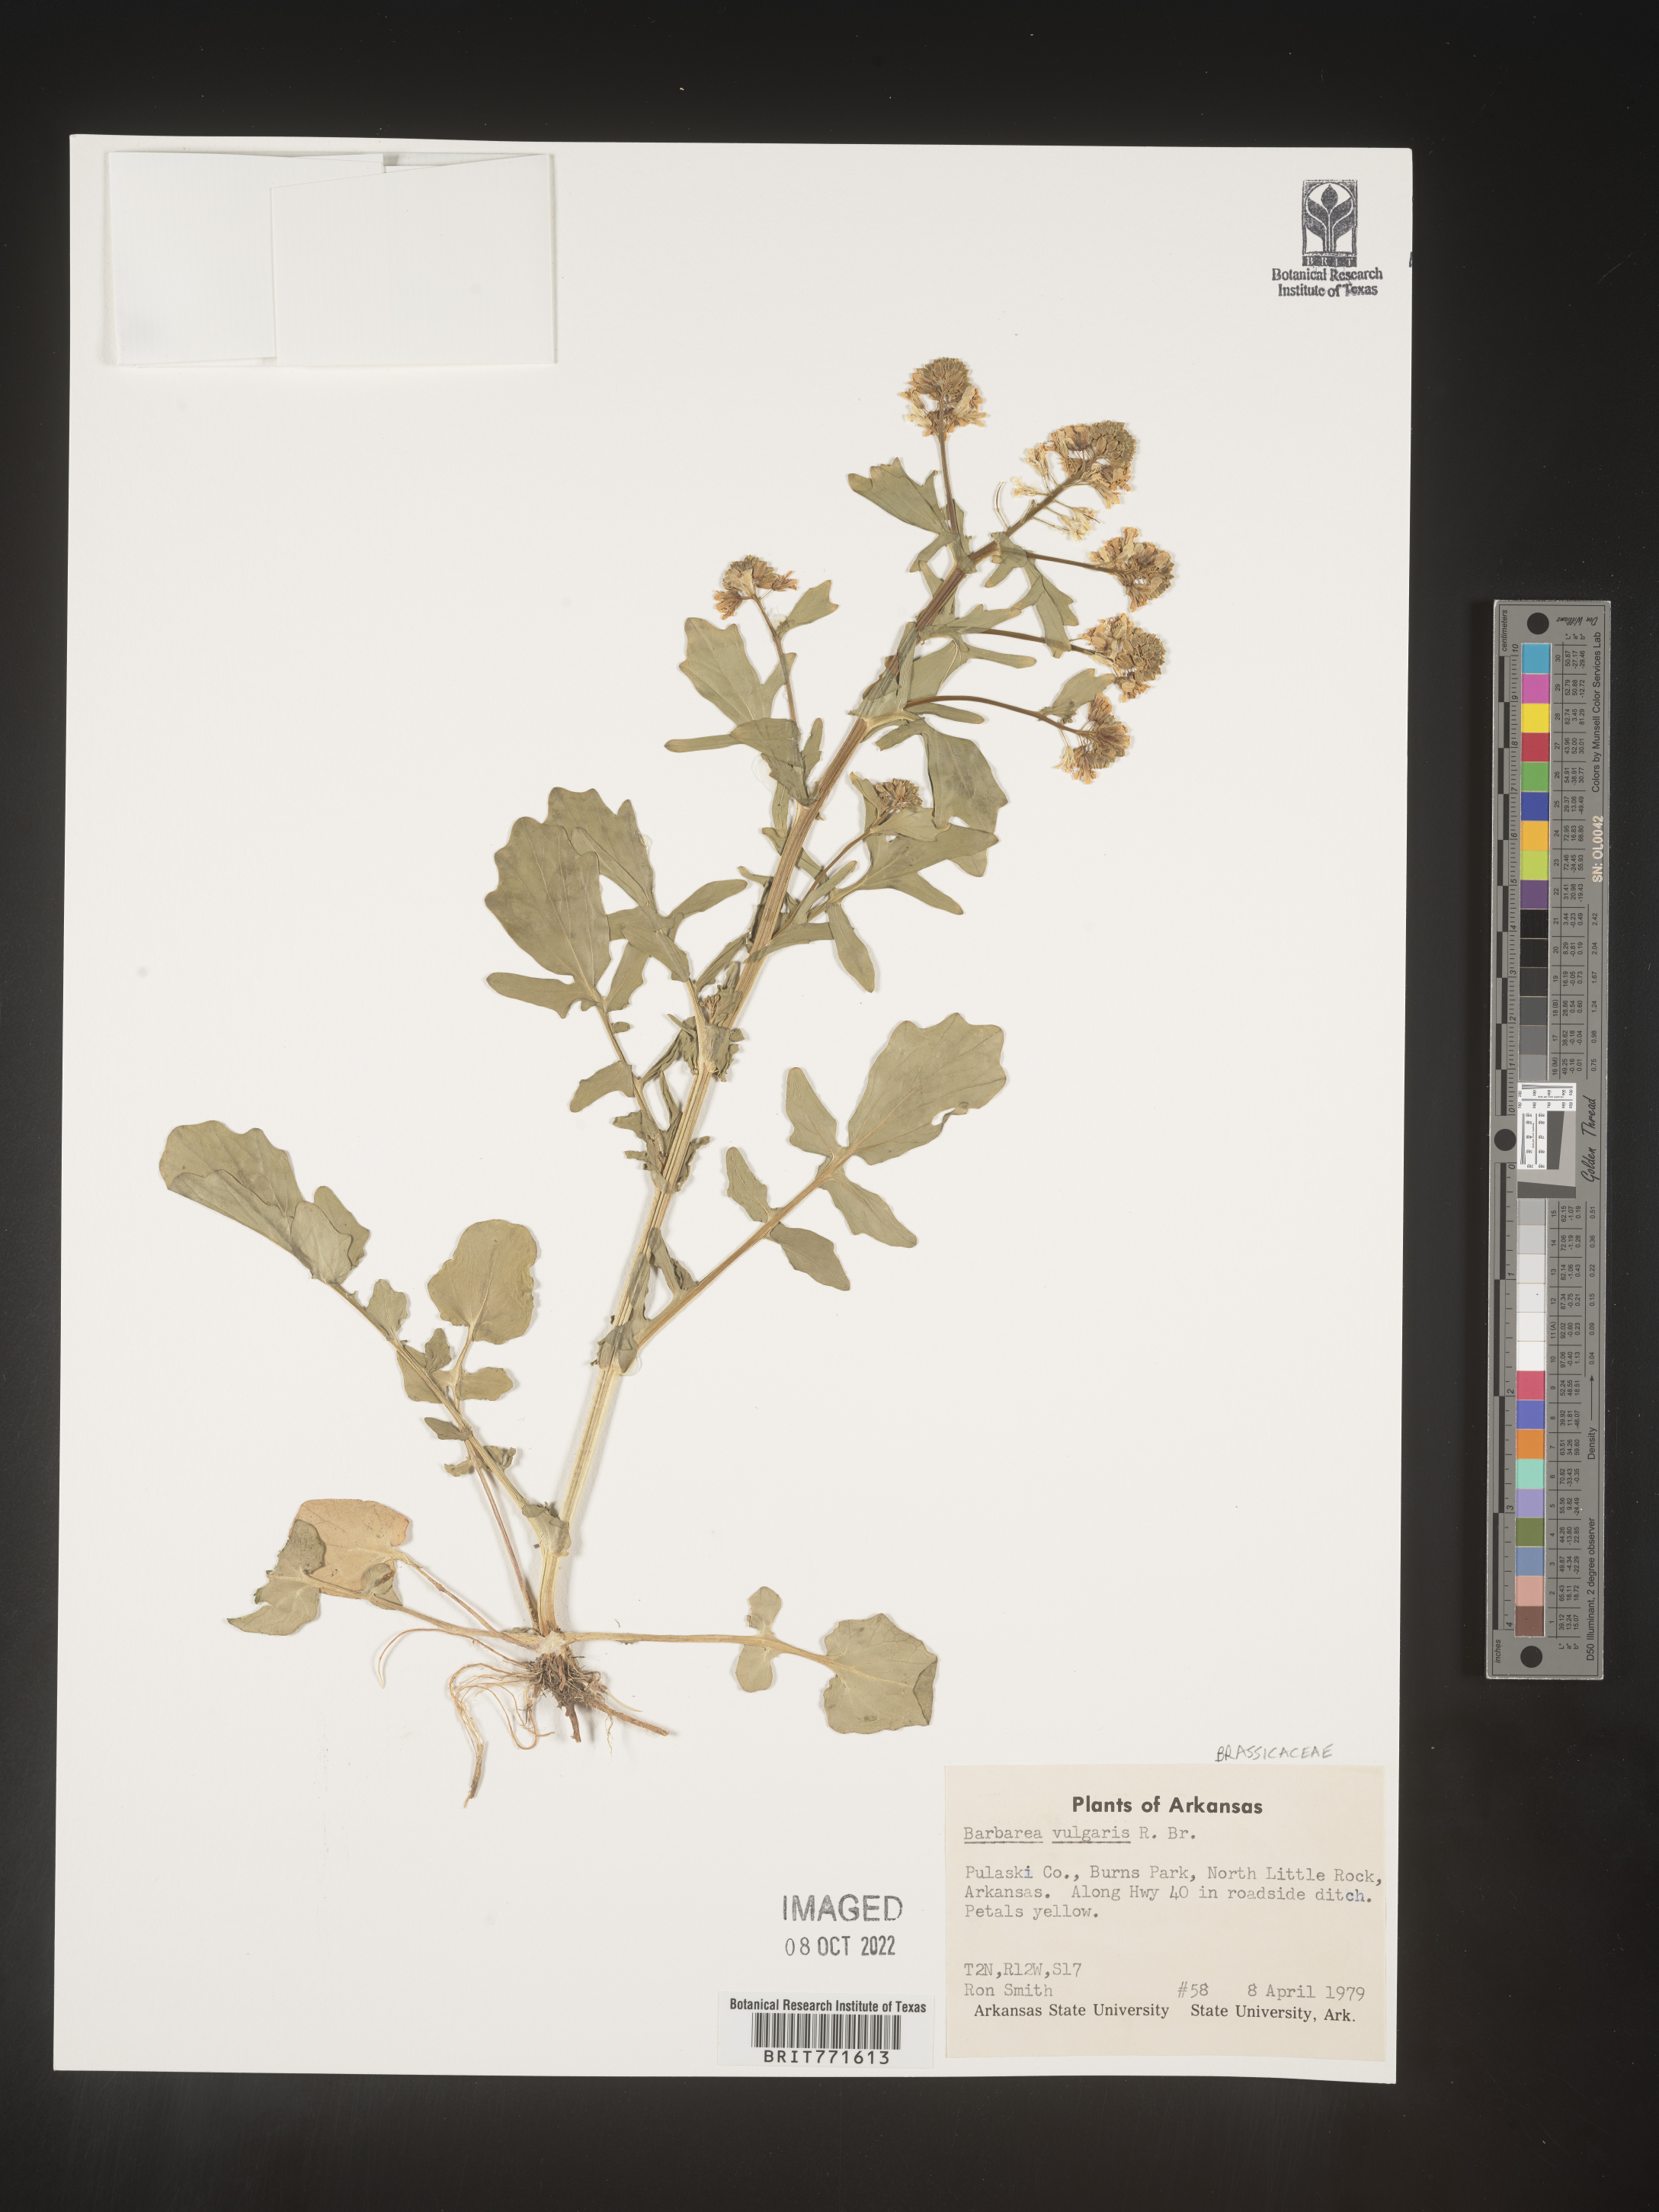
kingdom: Plantae
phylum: Tracheophyta
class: Magnoliopsida
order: Brassicales
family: Brassicaceae
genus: Barbarea
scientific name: Barbarea vulgaris
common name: Cressy-greens
